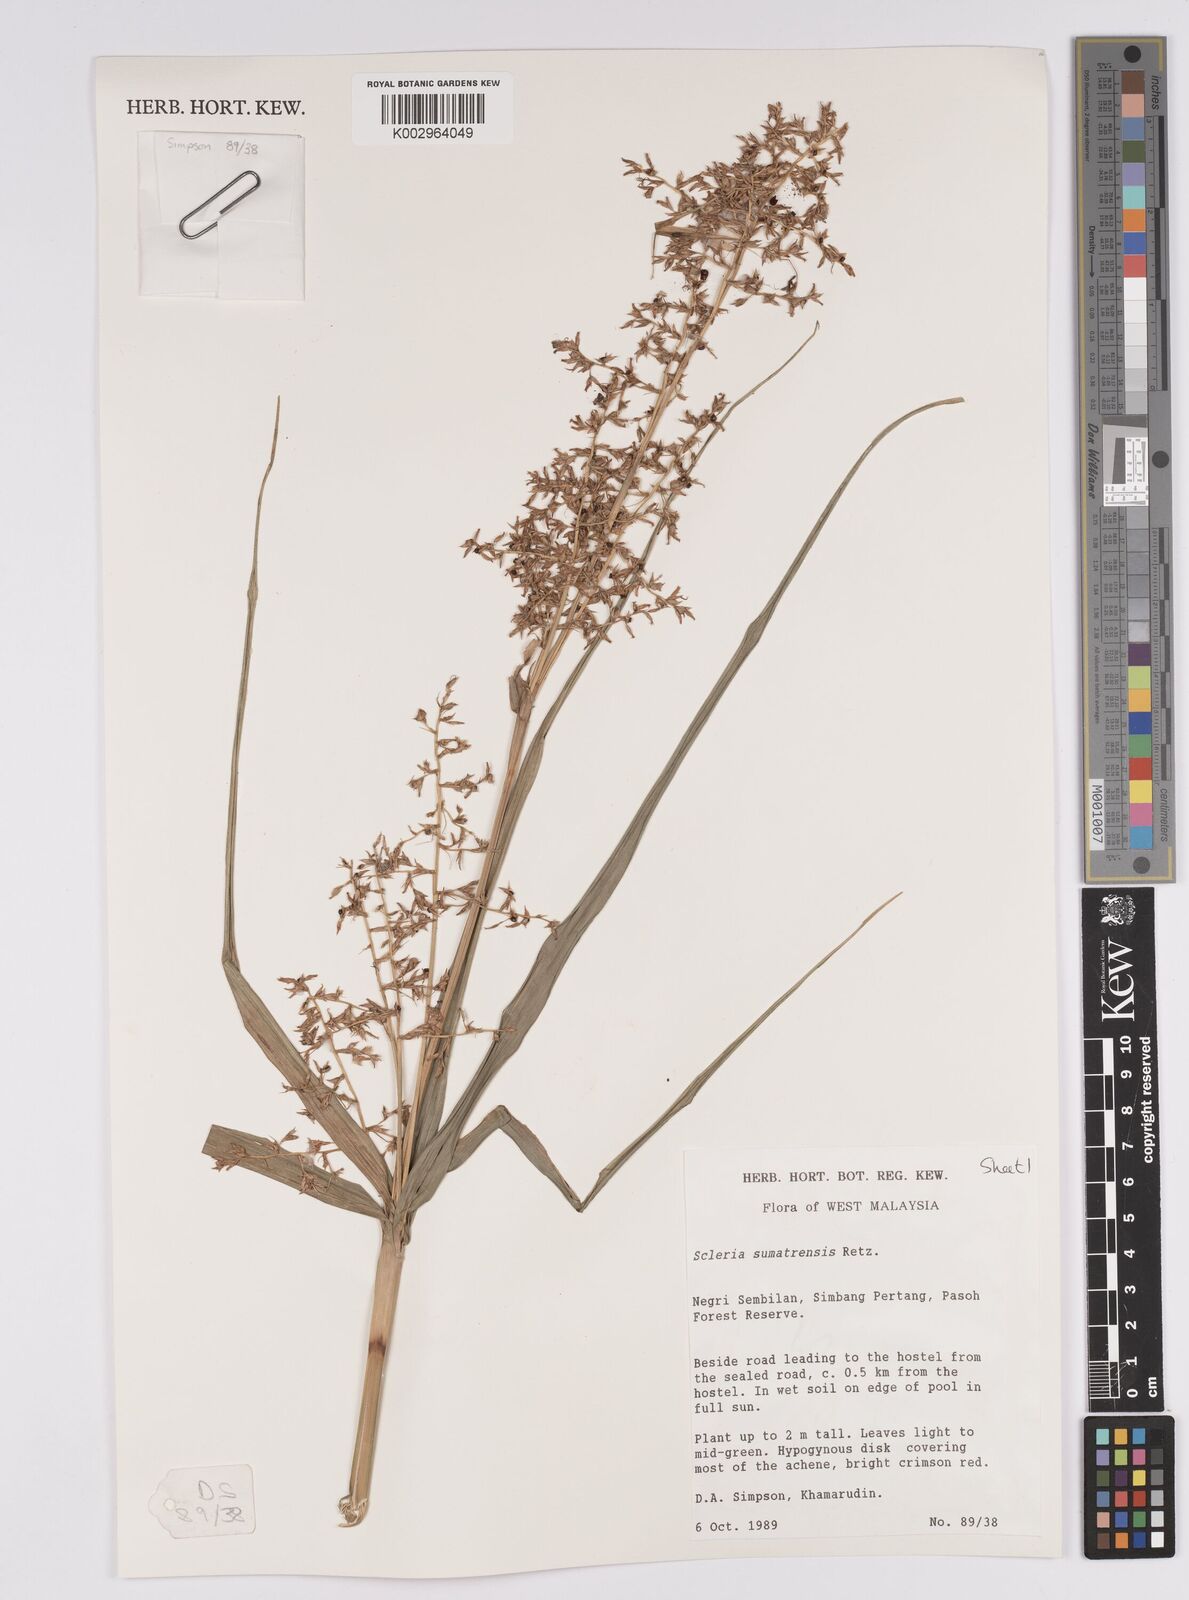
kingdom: Plantae
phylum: Tracheophyta
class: Liliopsida
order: Poales
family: Cyperaceae
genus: Scleria
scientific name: Scleria sumatrensis
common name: Sumatran scleria
